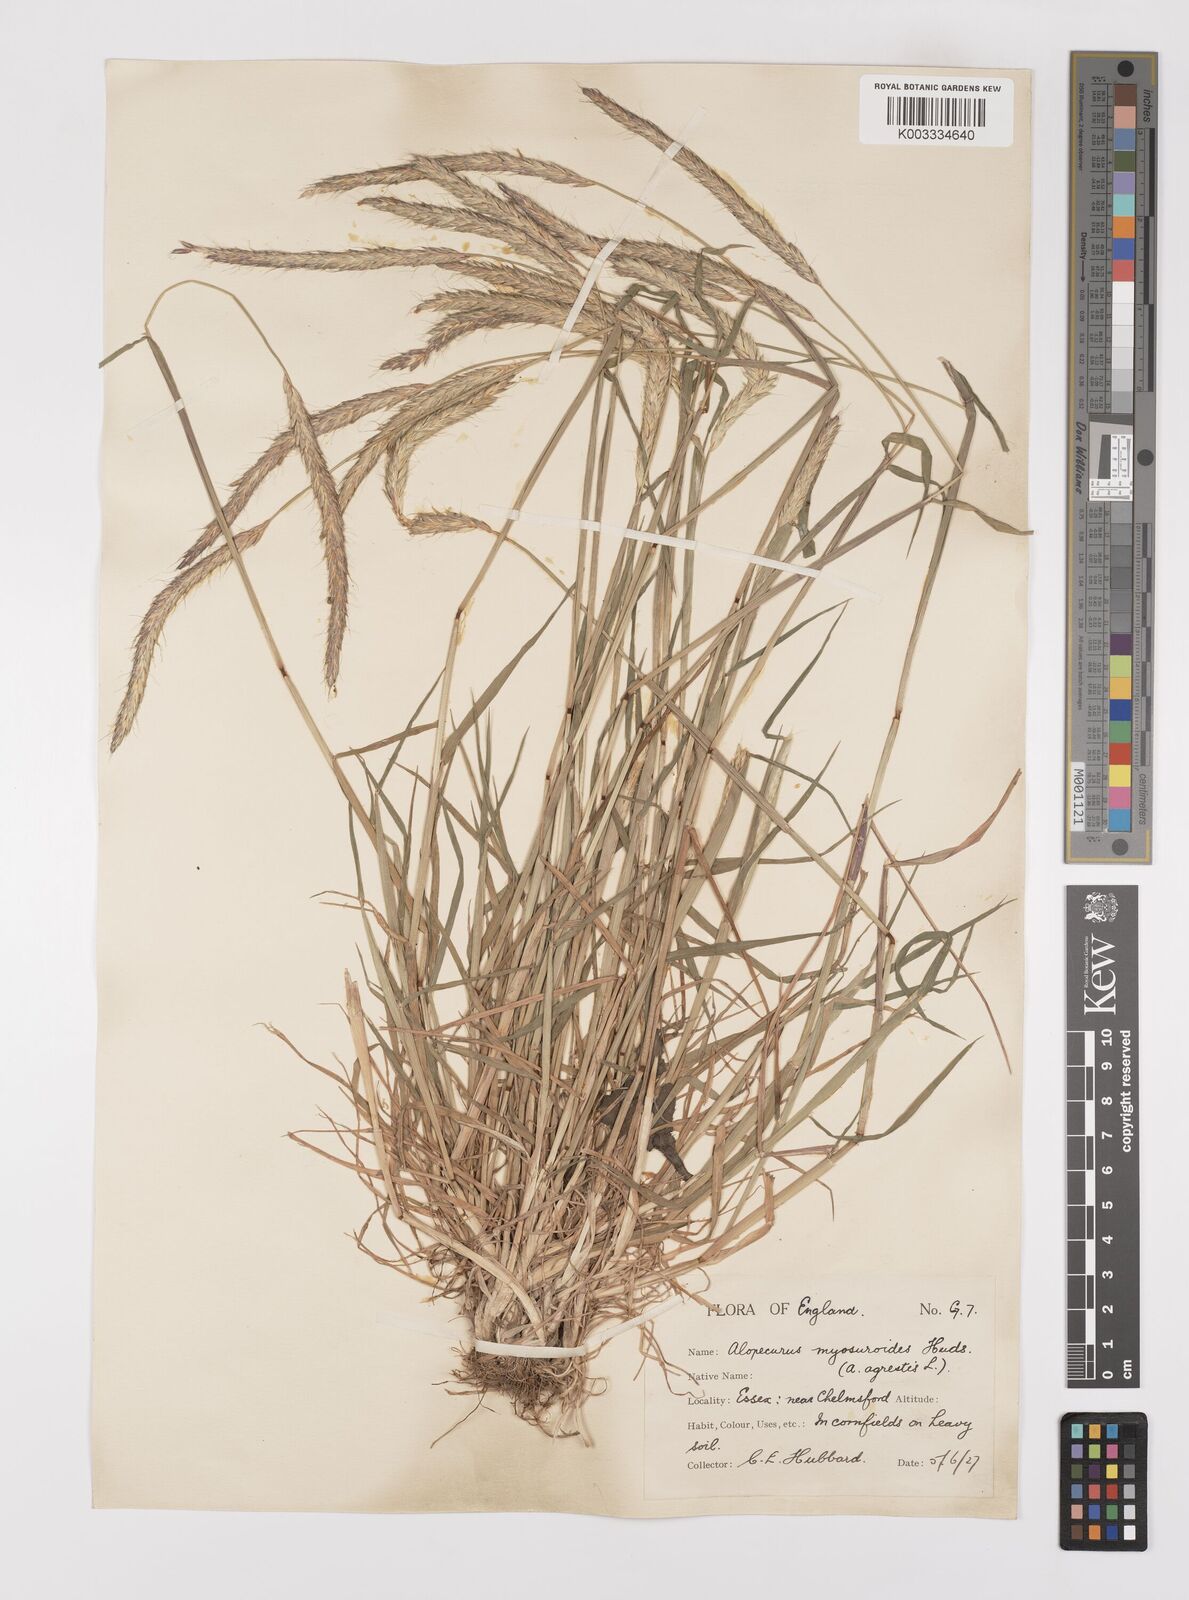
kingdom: Plantae
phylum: Tracheophyta
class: Liliopsida
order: Poales
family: Poaceae
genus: Alopecurus
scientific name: Alopecurus myosuroides
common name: Black-grass
